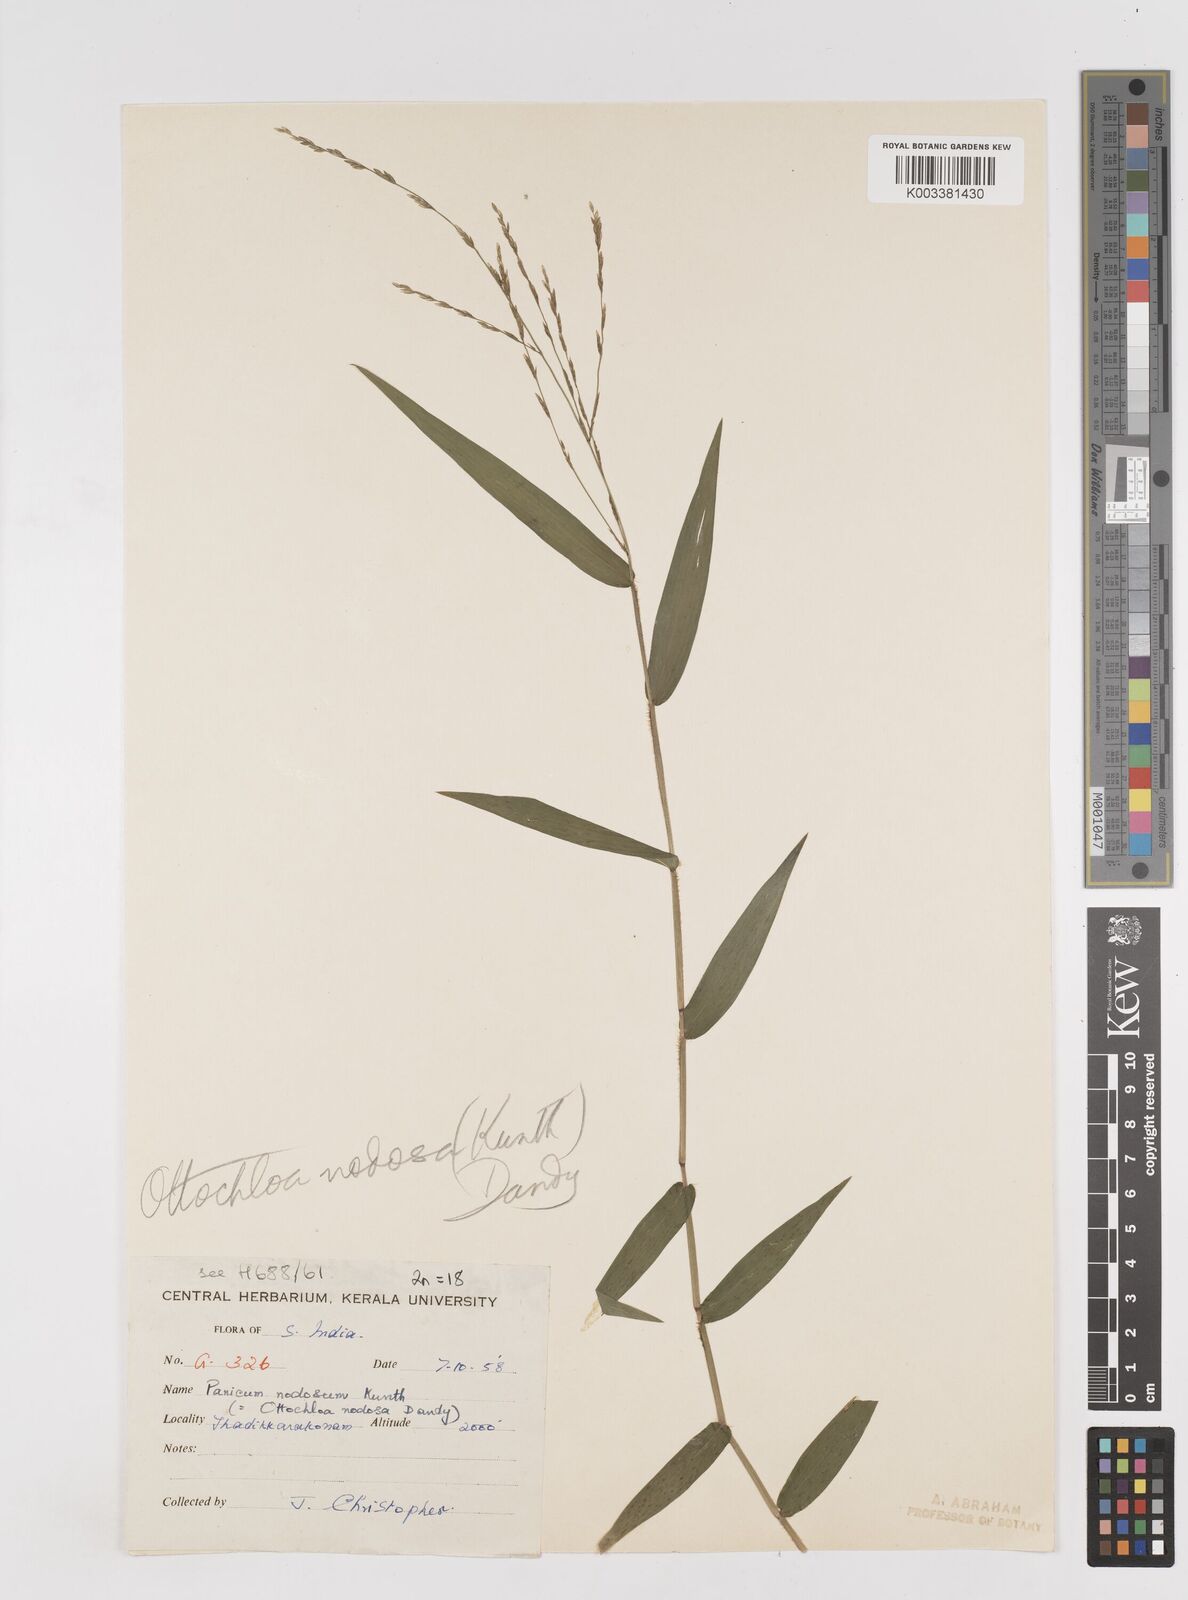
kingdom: Plantae
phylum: Tracheophyta
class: Liliopsida
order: Poales
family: Poaceae
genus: Ottochloa
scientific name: Ottochloa
